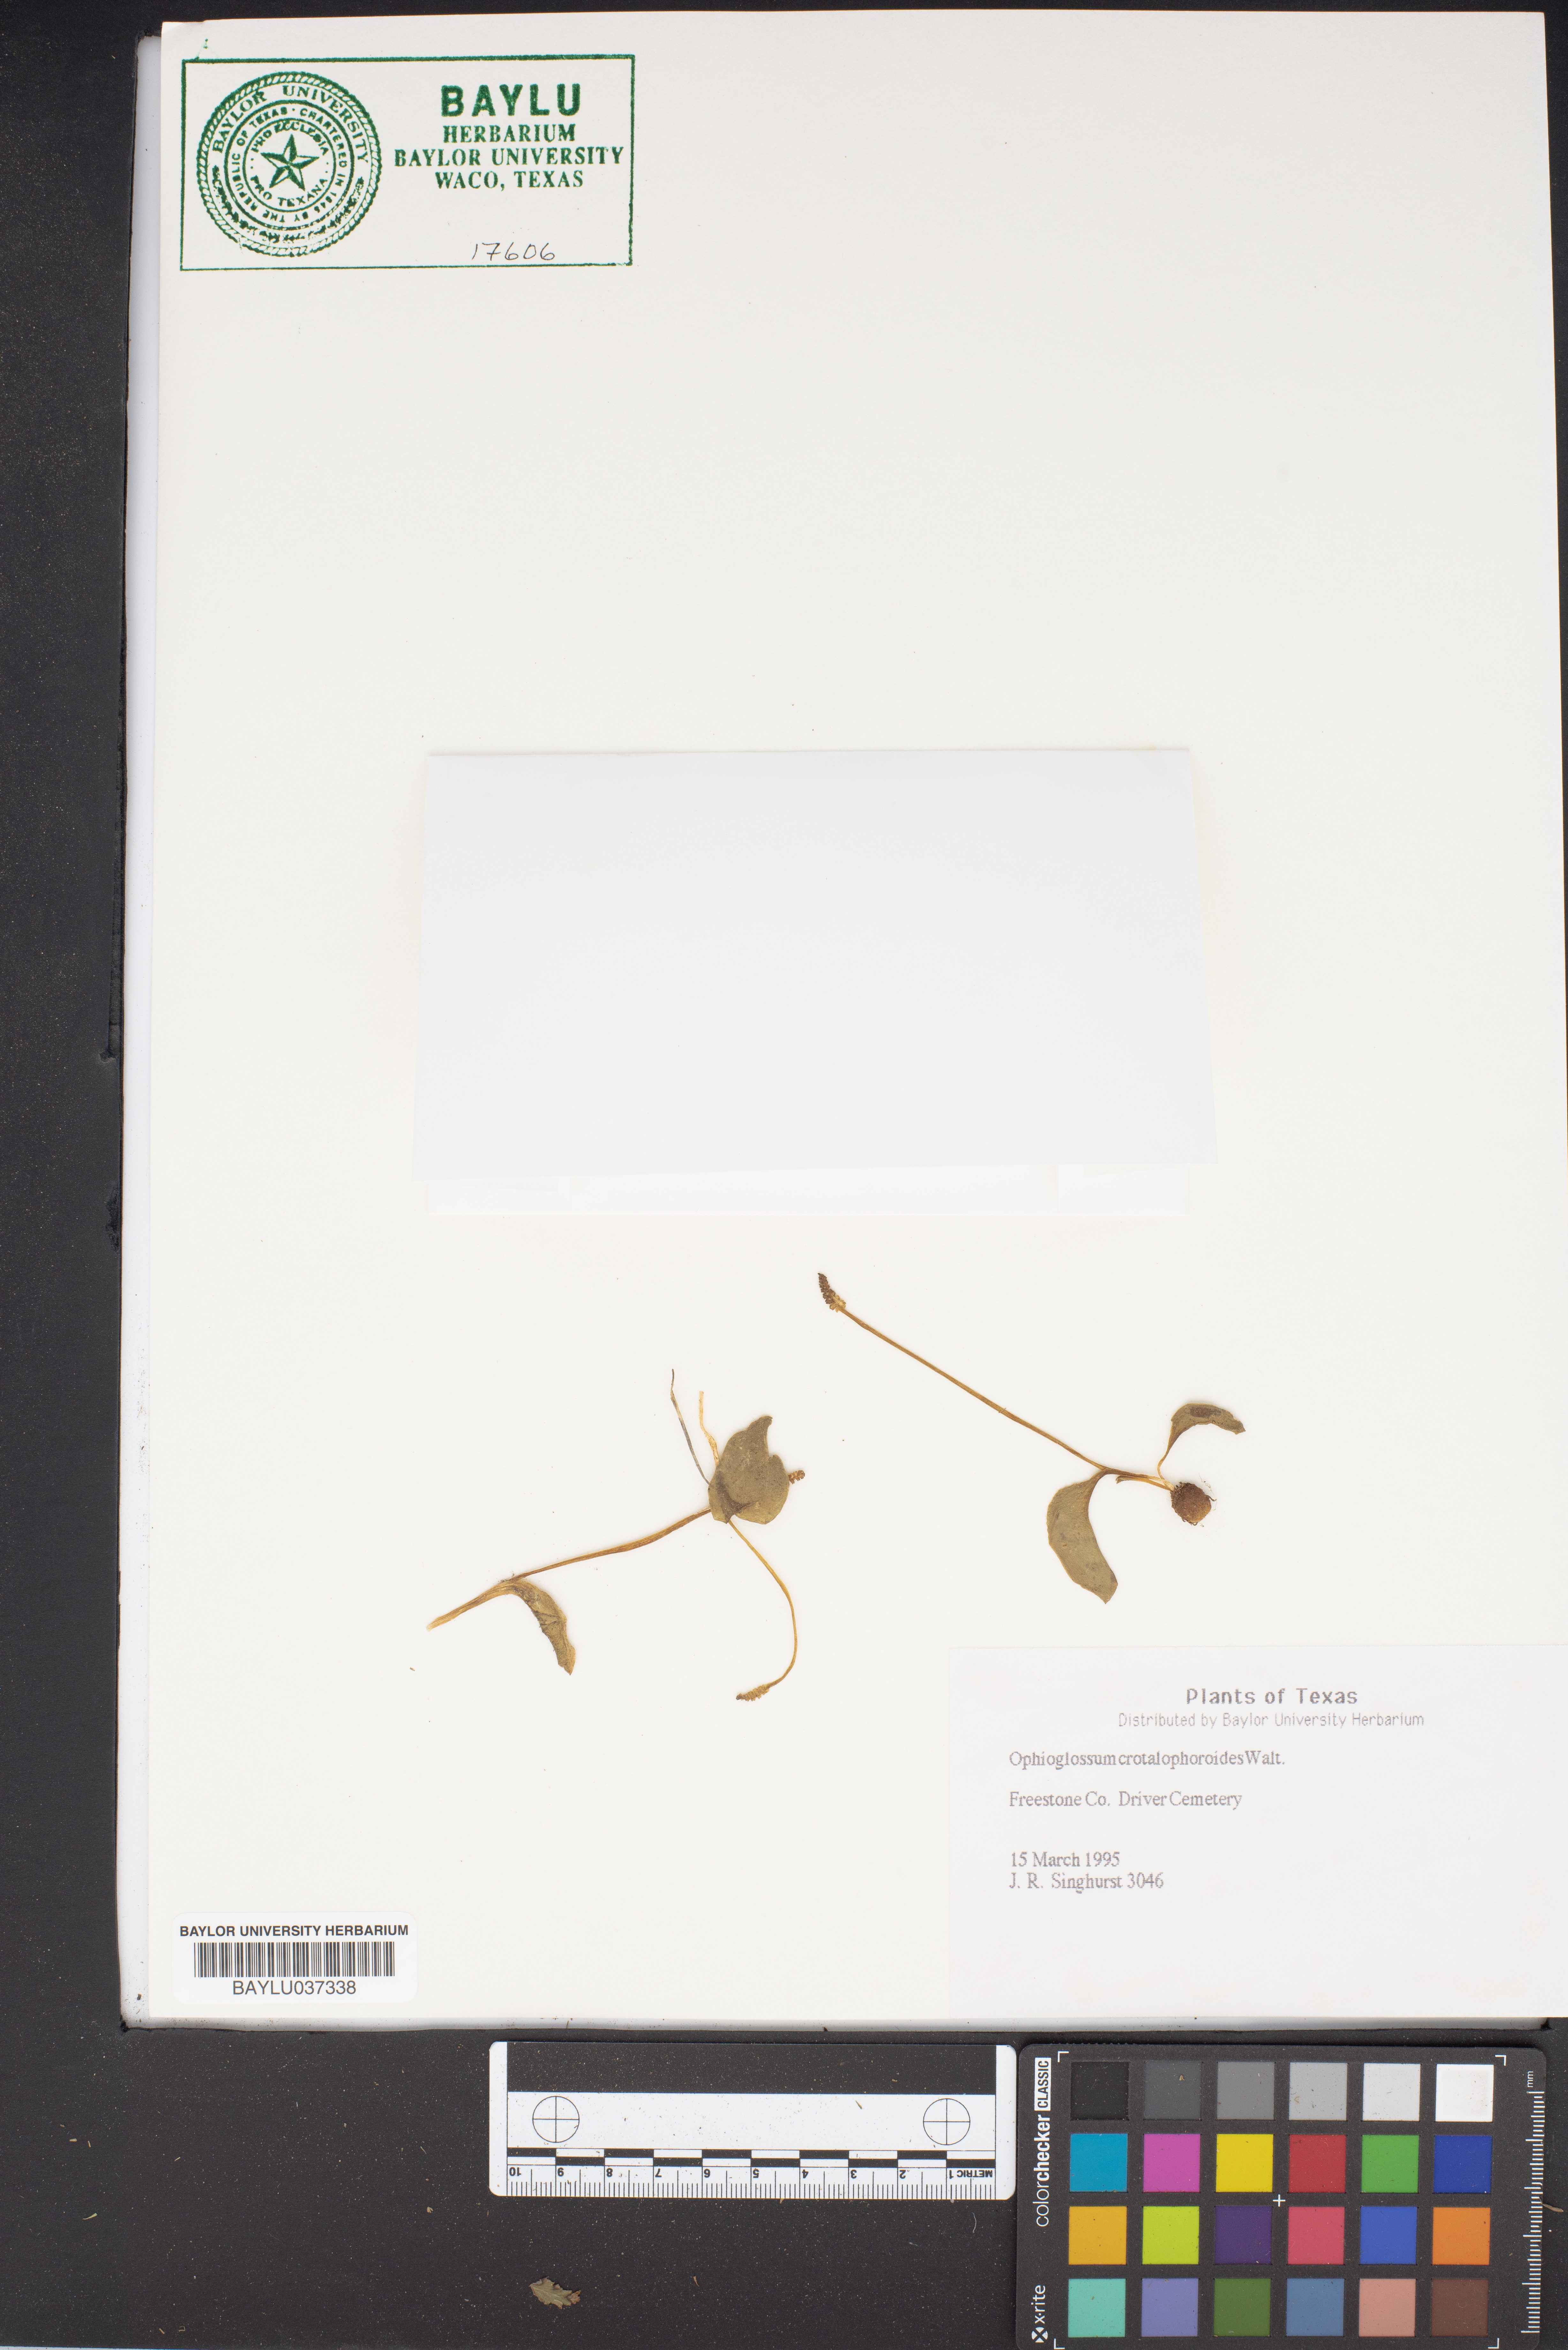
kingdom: Plantae
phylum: Tracheophyta
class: Polypodiopsida
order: Ophioglossales
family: Ophioglossaceae
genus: Ophioglossum
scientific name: Ophioglossum crotalophoroides
